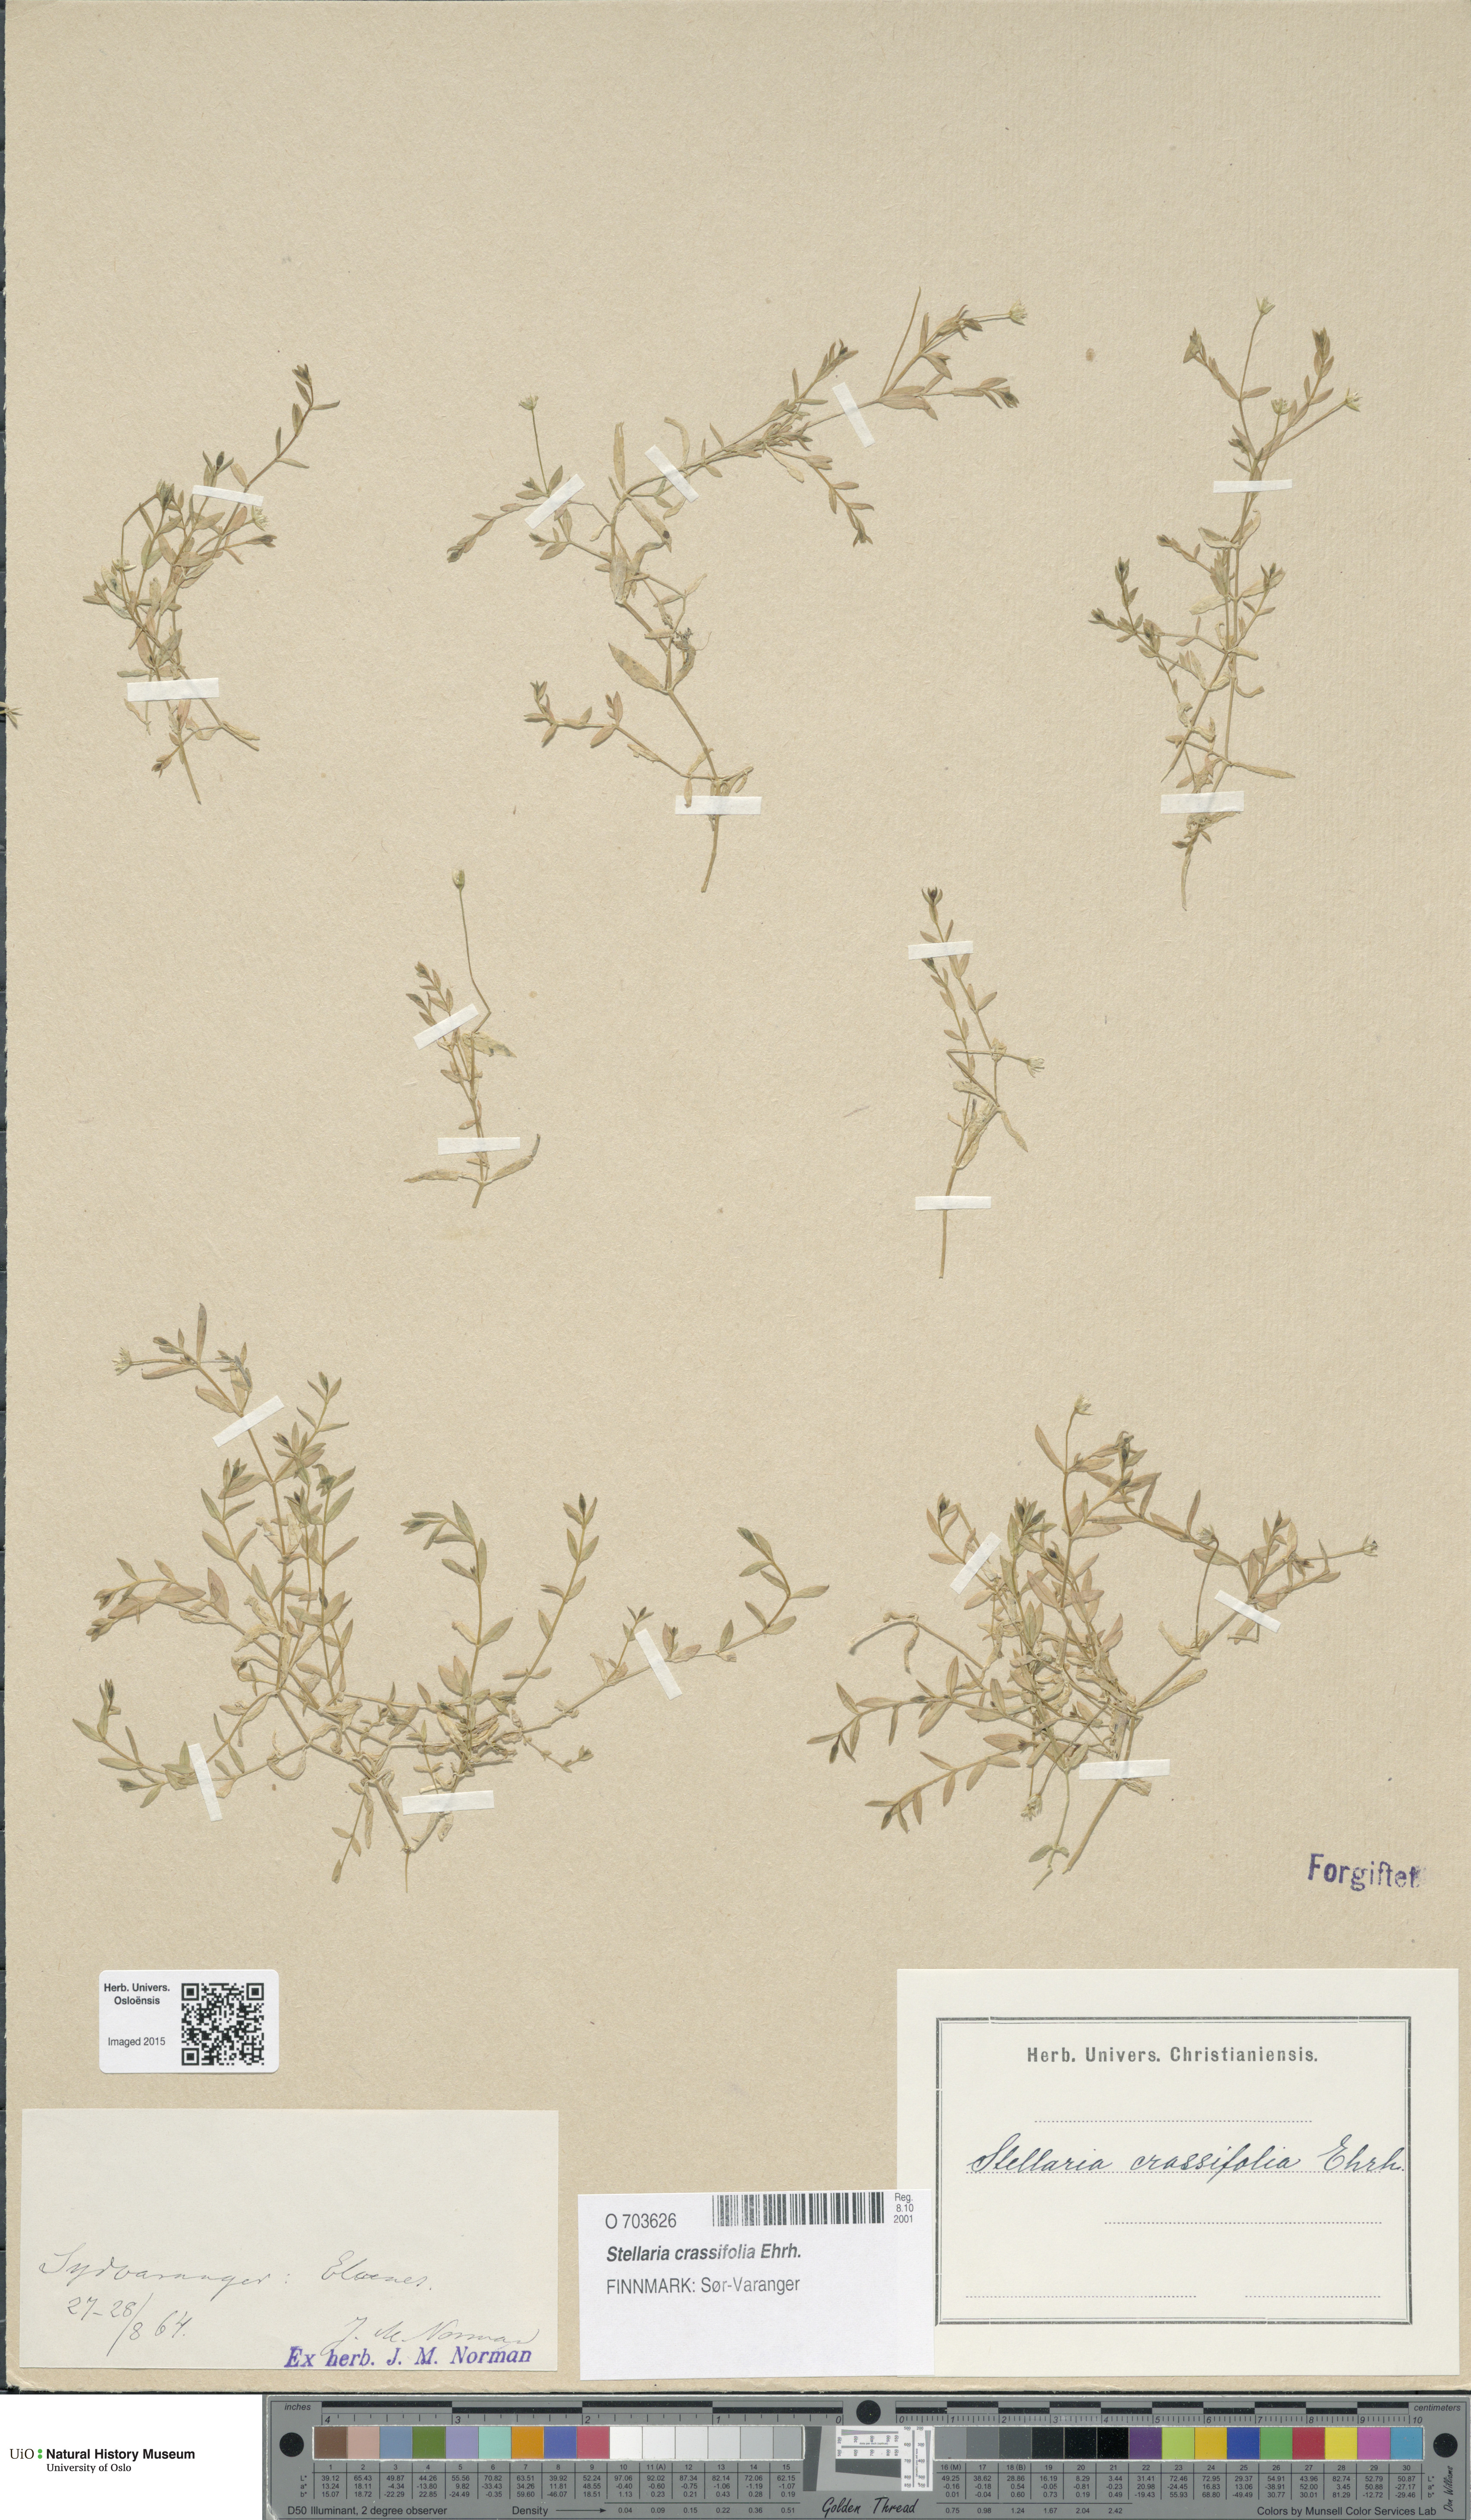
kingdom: Plantae
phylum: Tracheophyta
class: Magnoliopsida
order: Caryophyllales
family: Caryophyllaceae
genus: Stellaria
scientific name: Stellaria crassifolia
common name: Fleshy starwort
